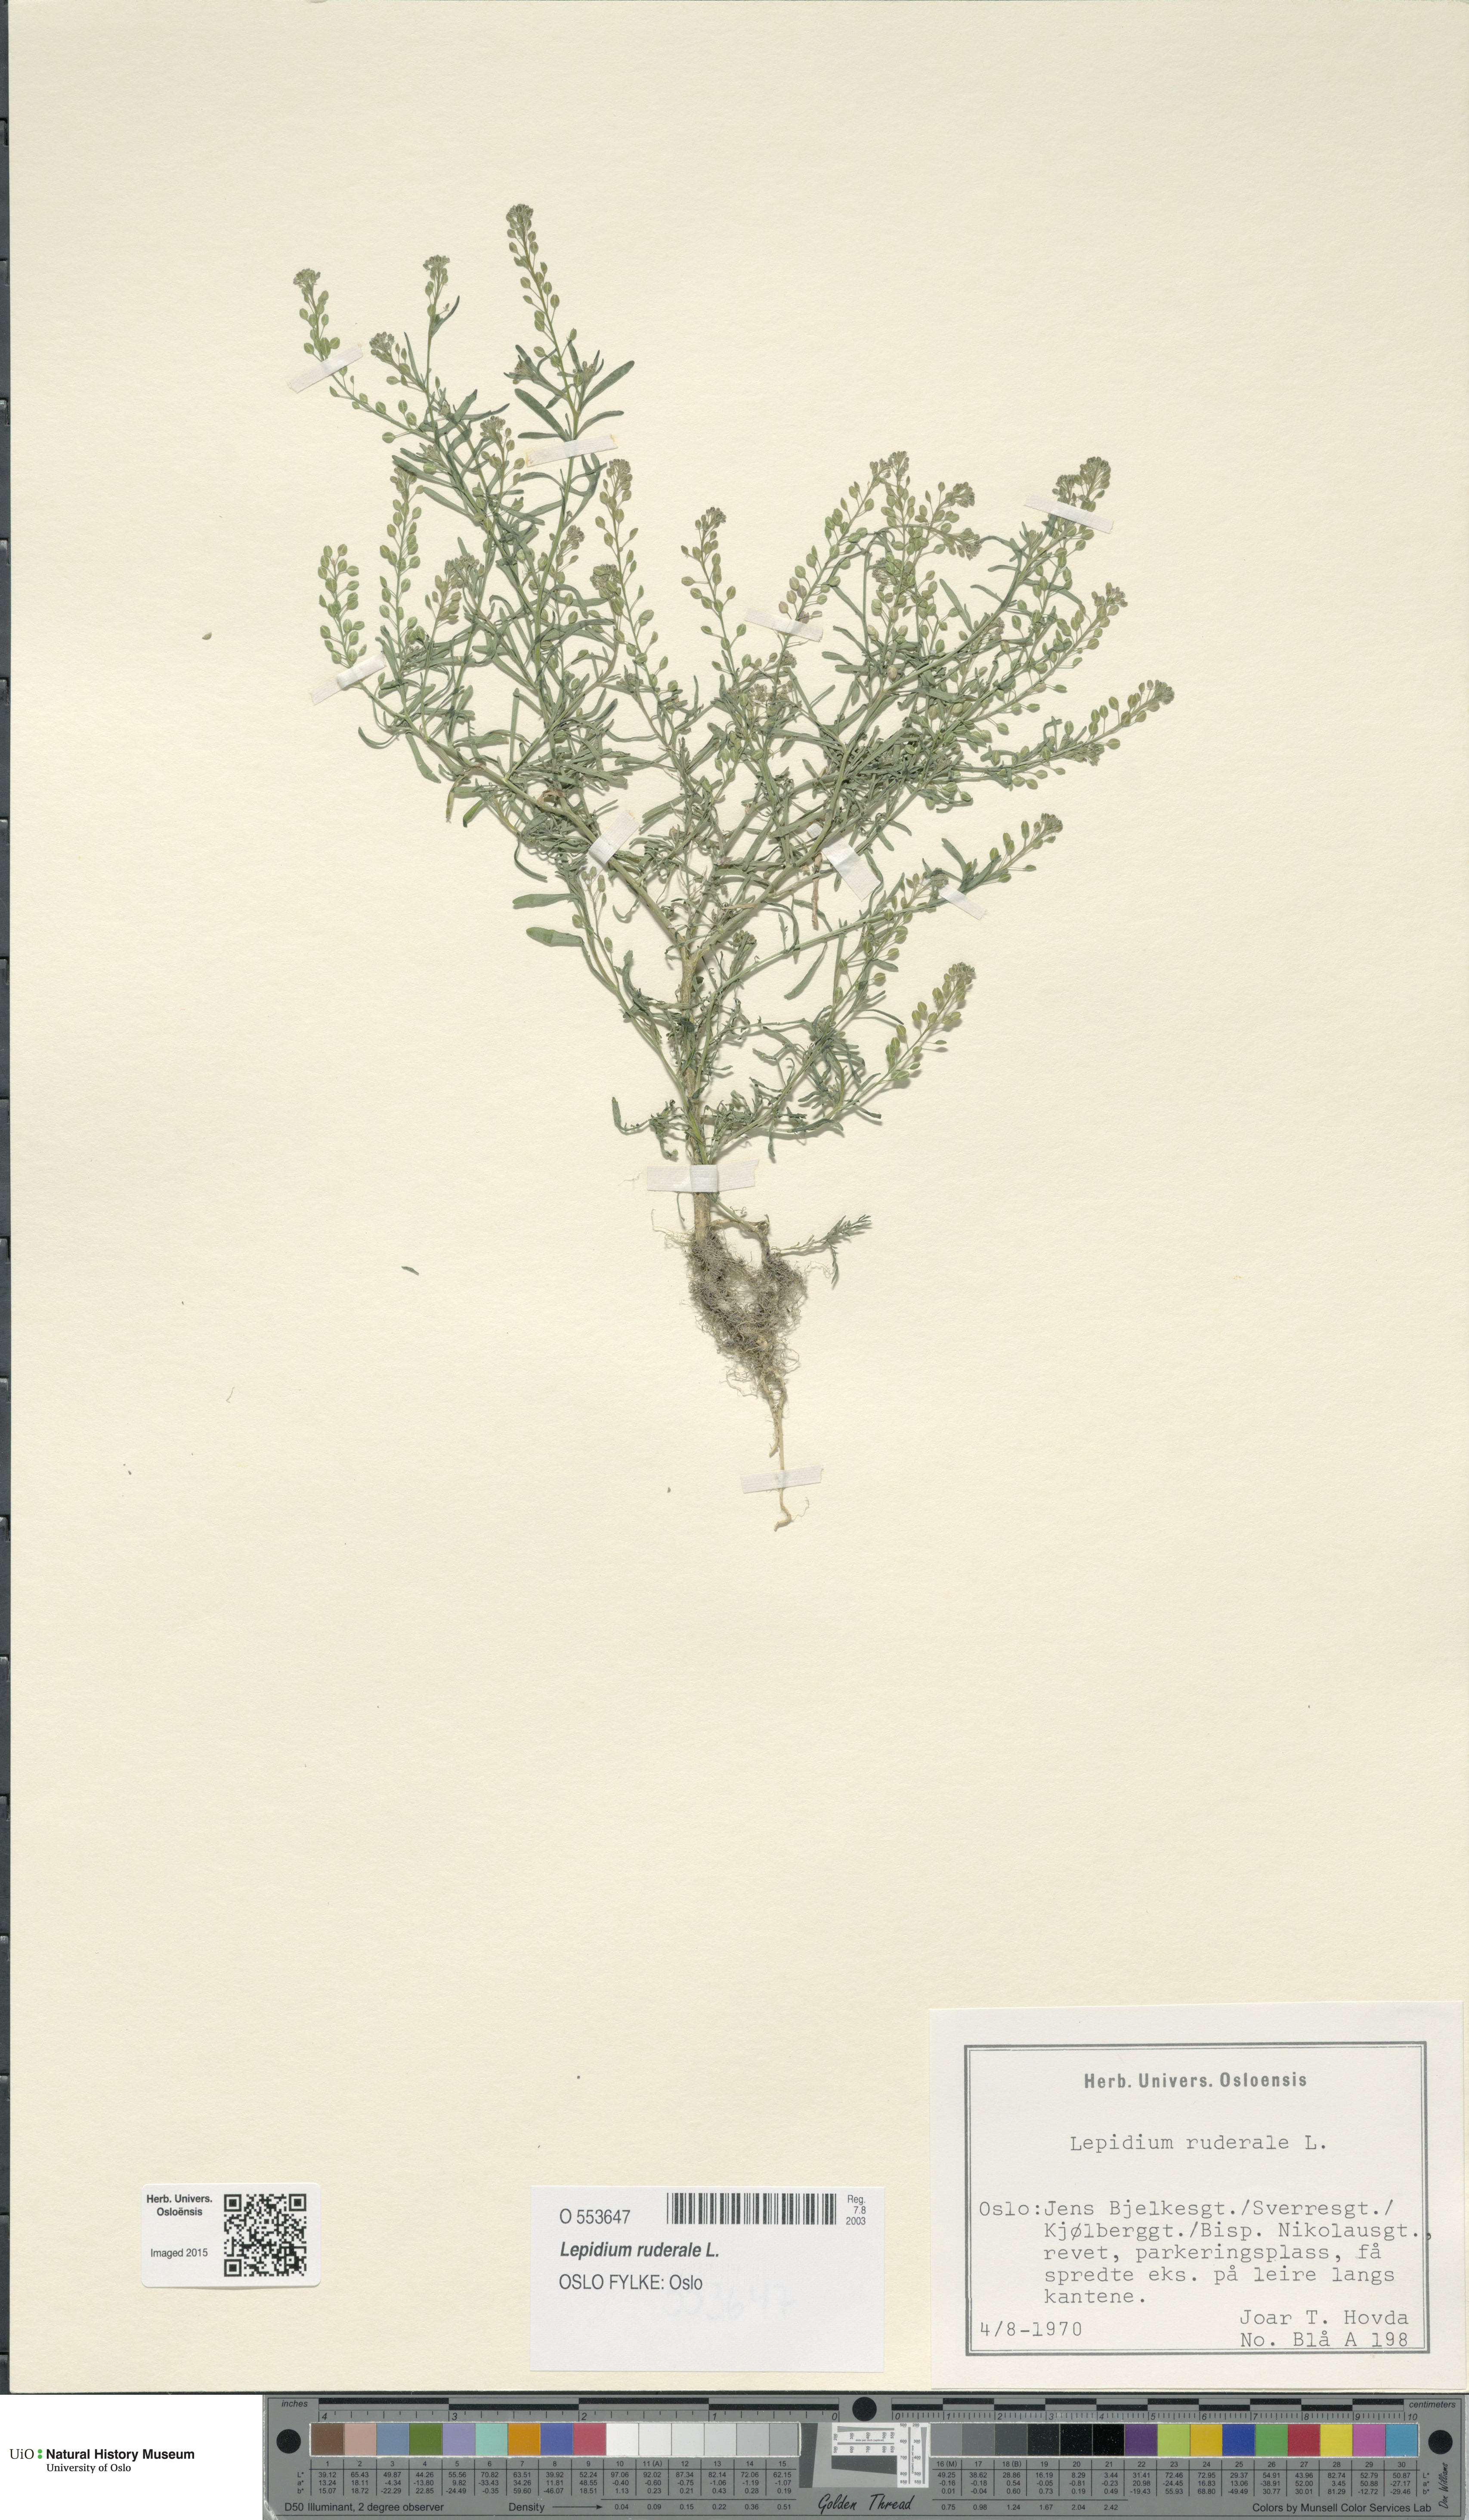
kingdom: Plantae
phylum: Tracheophyta
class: Magnoliopsida
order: Brassicales
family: Brassicaceae
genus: Lepidium
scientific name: Lepidium ruderale
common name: Narrow-leaved pepperwort
